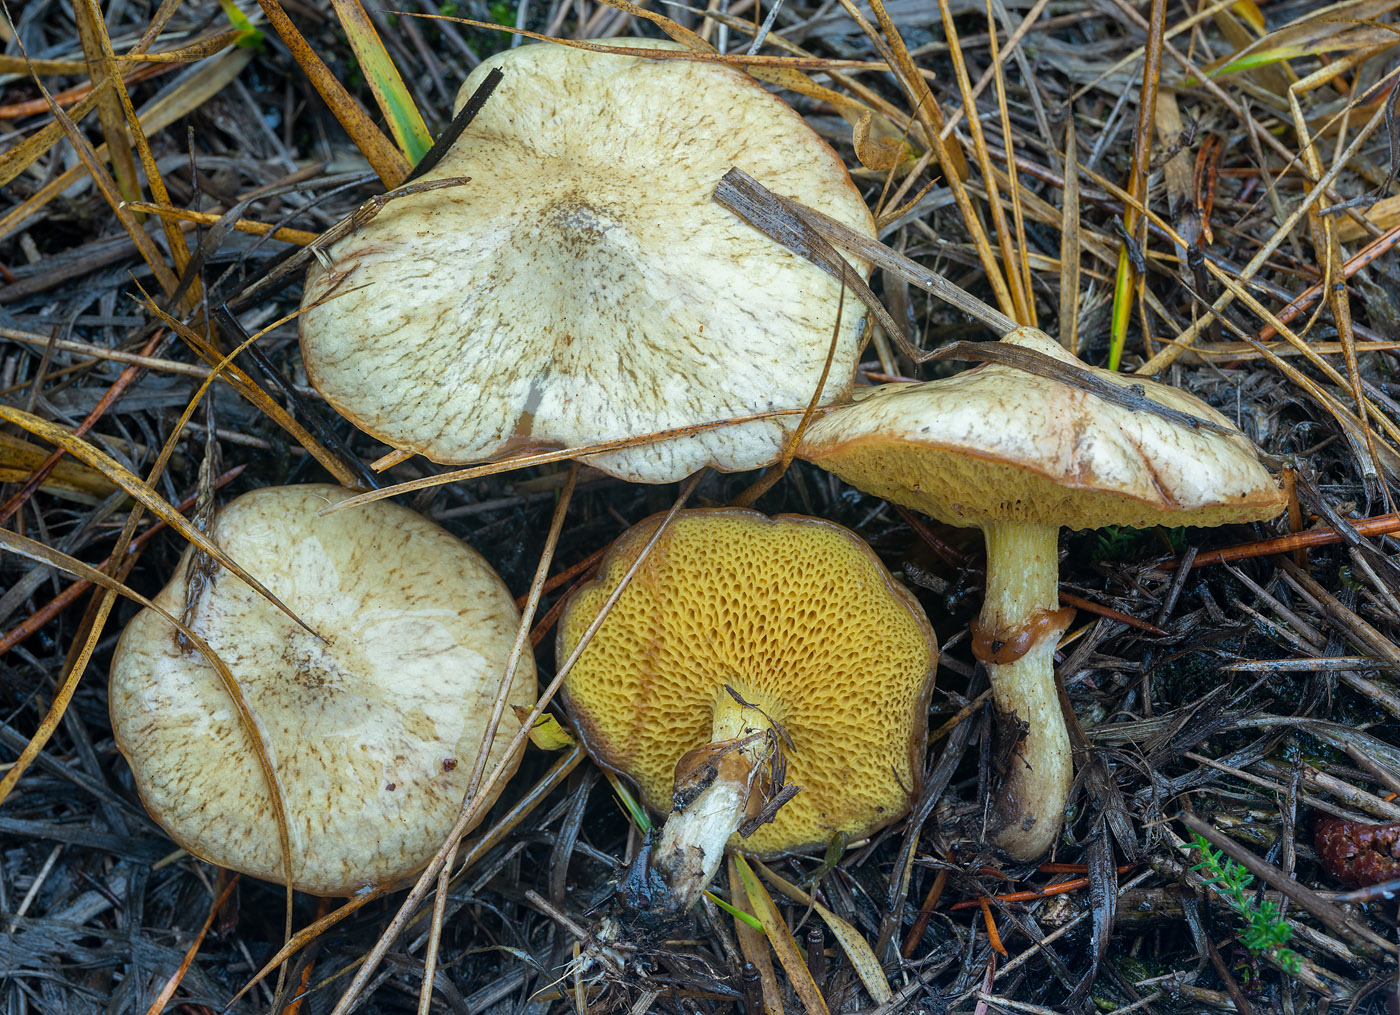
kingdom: Fungi
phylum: Basidiomycota
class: Agaricomycetes
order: Boletales
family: Suillaceae
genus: Suillus
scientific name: Suillus flavidus
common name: mose-slimrørhat
